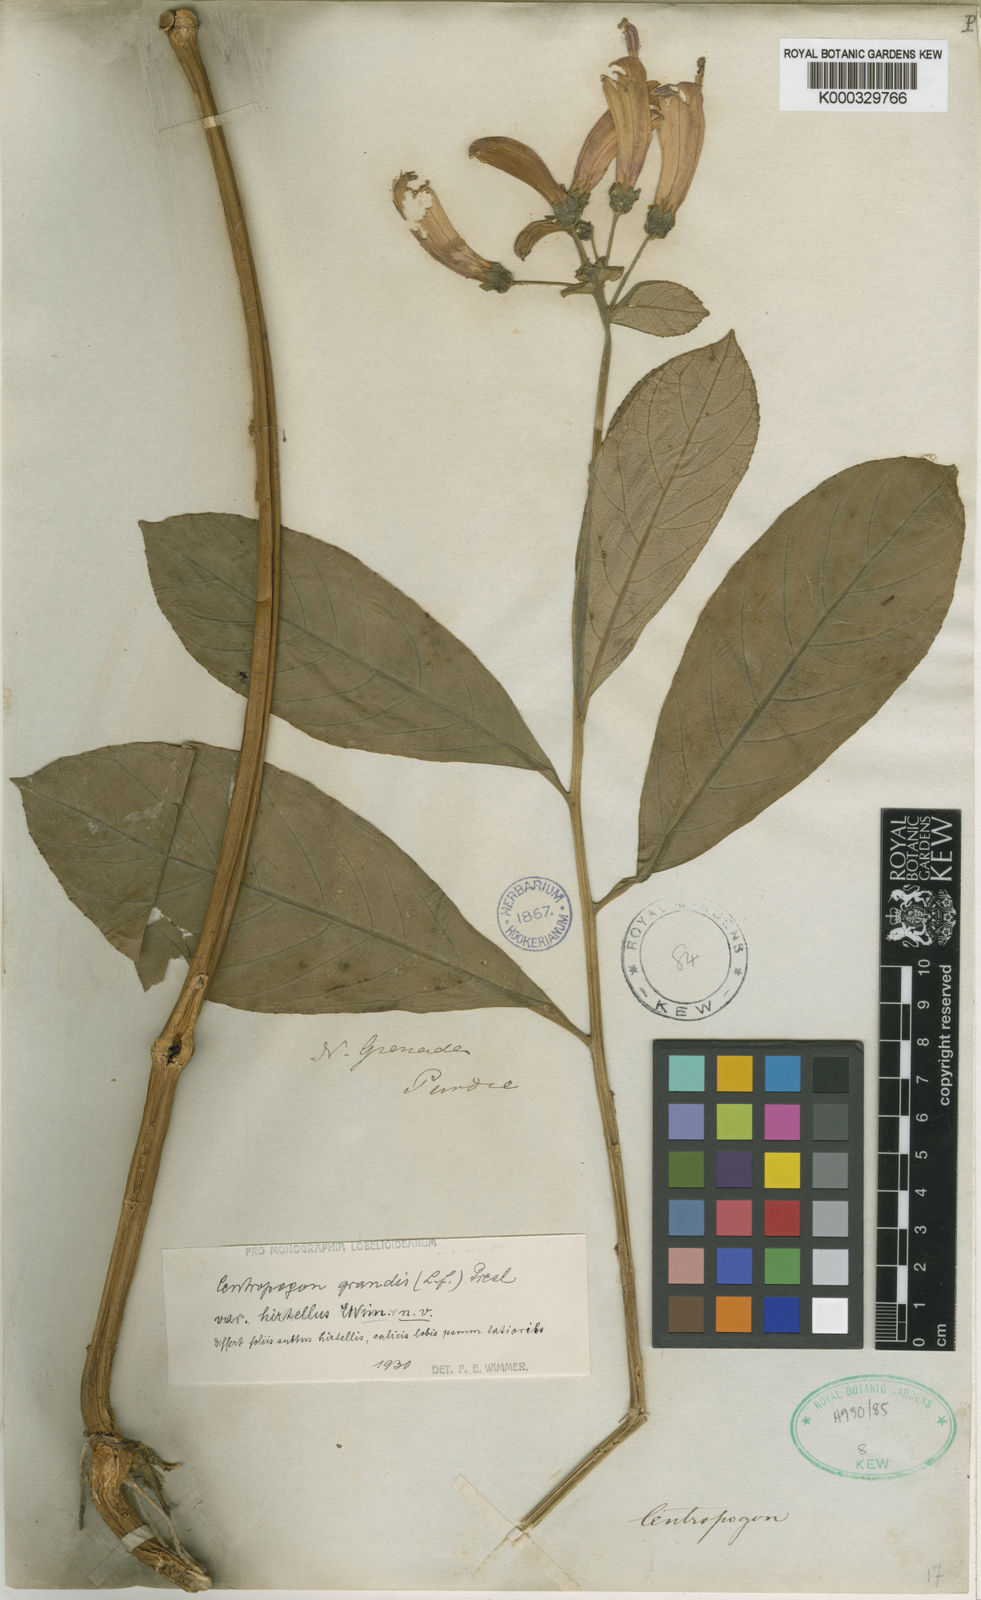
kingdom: Plantae
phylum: Tracheophyta
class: Magnoliopsida
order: Asterales
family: Campanulaceae
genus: Centropogon
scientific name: Centropogon grandis
